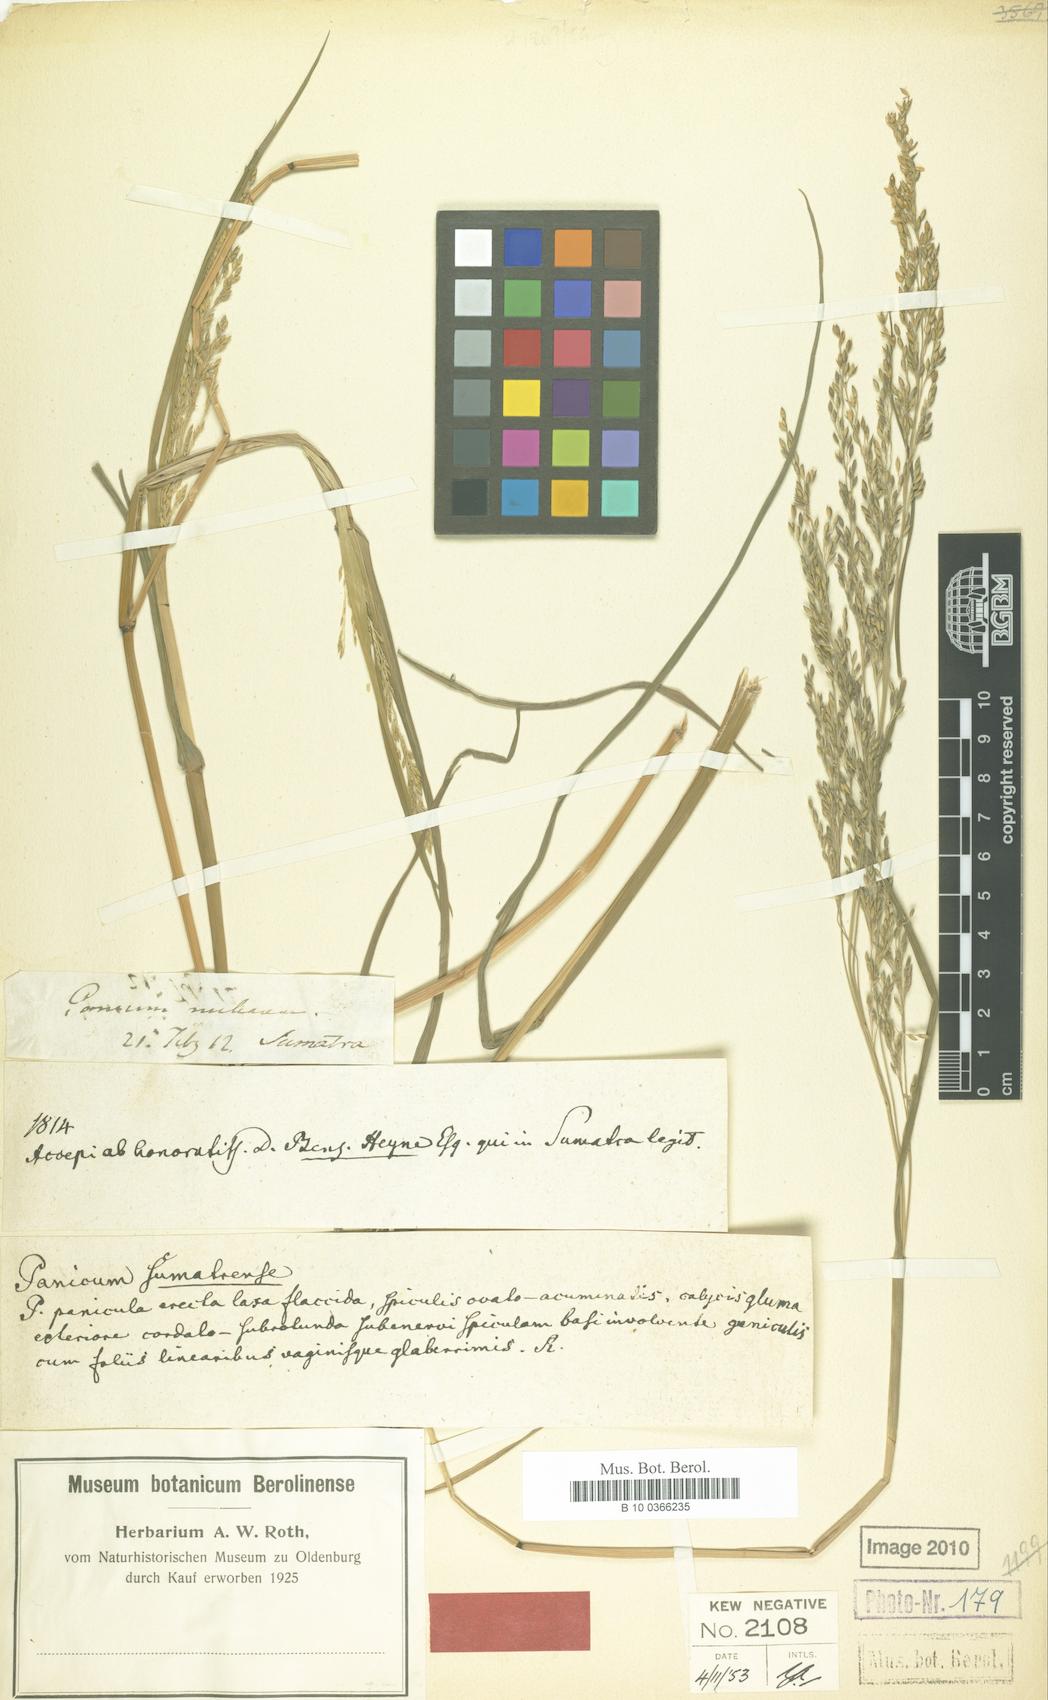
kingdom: Plantae
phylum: Tracheophyta
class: Liliopsida
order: Poales
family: Poaceae
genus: Panicum
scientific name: Panicum sumatrense
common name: Little millet
